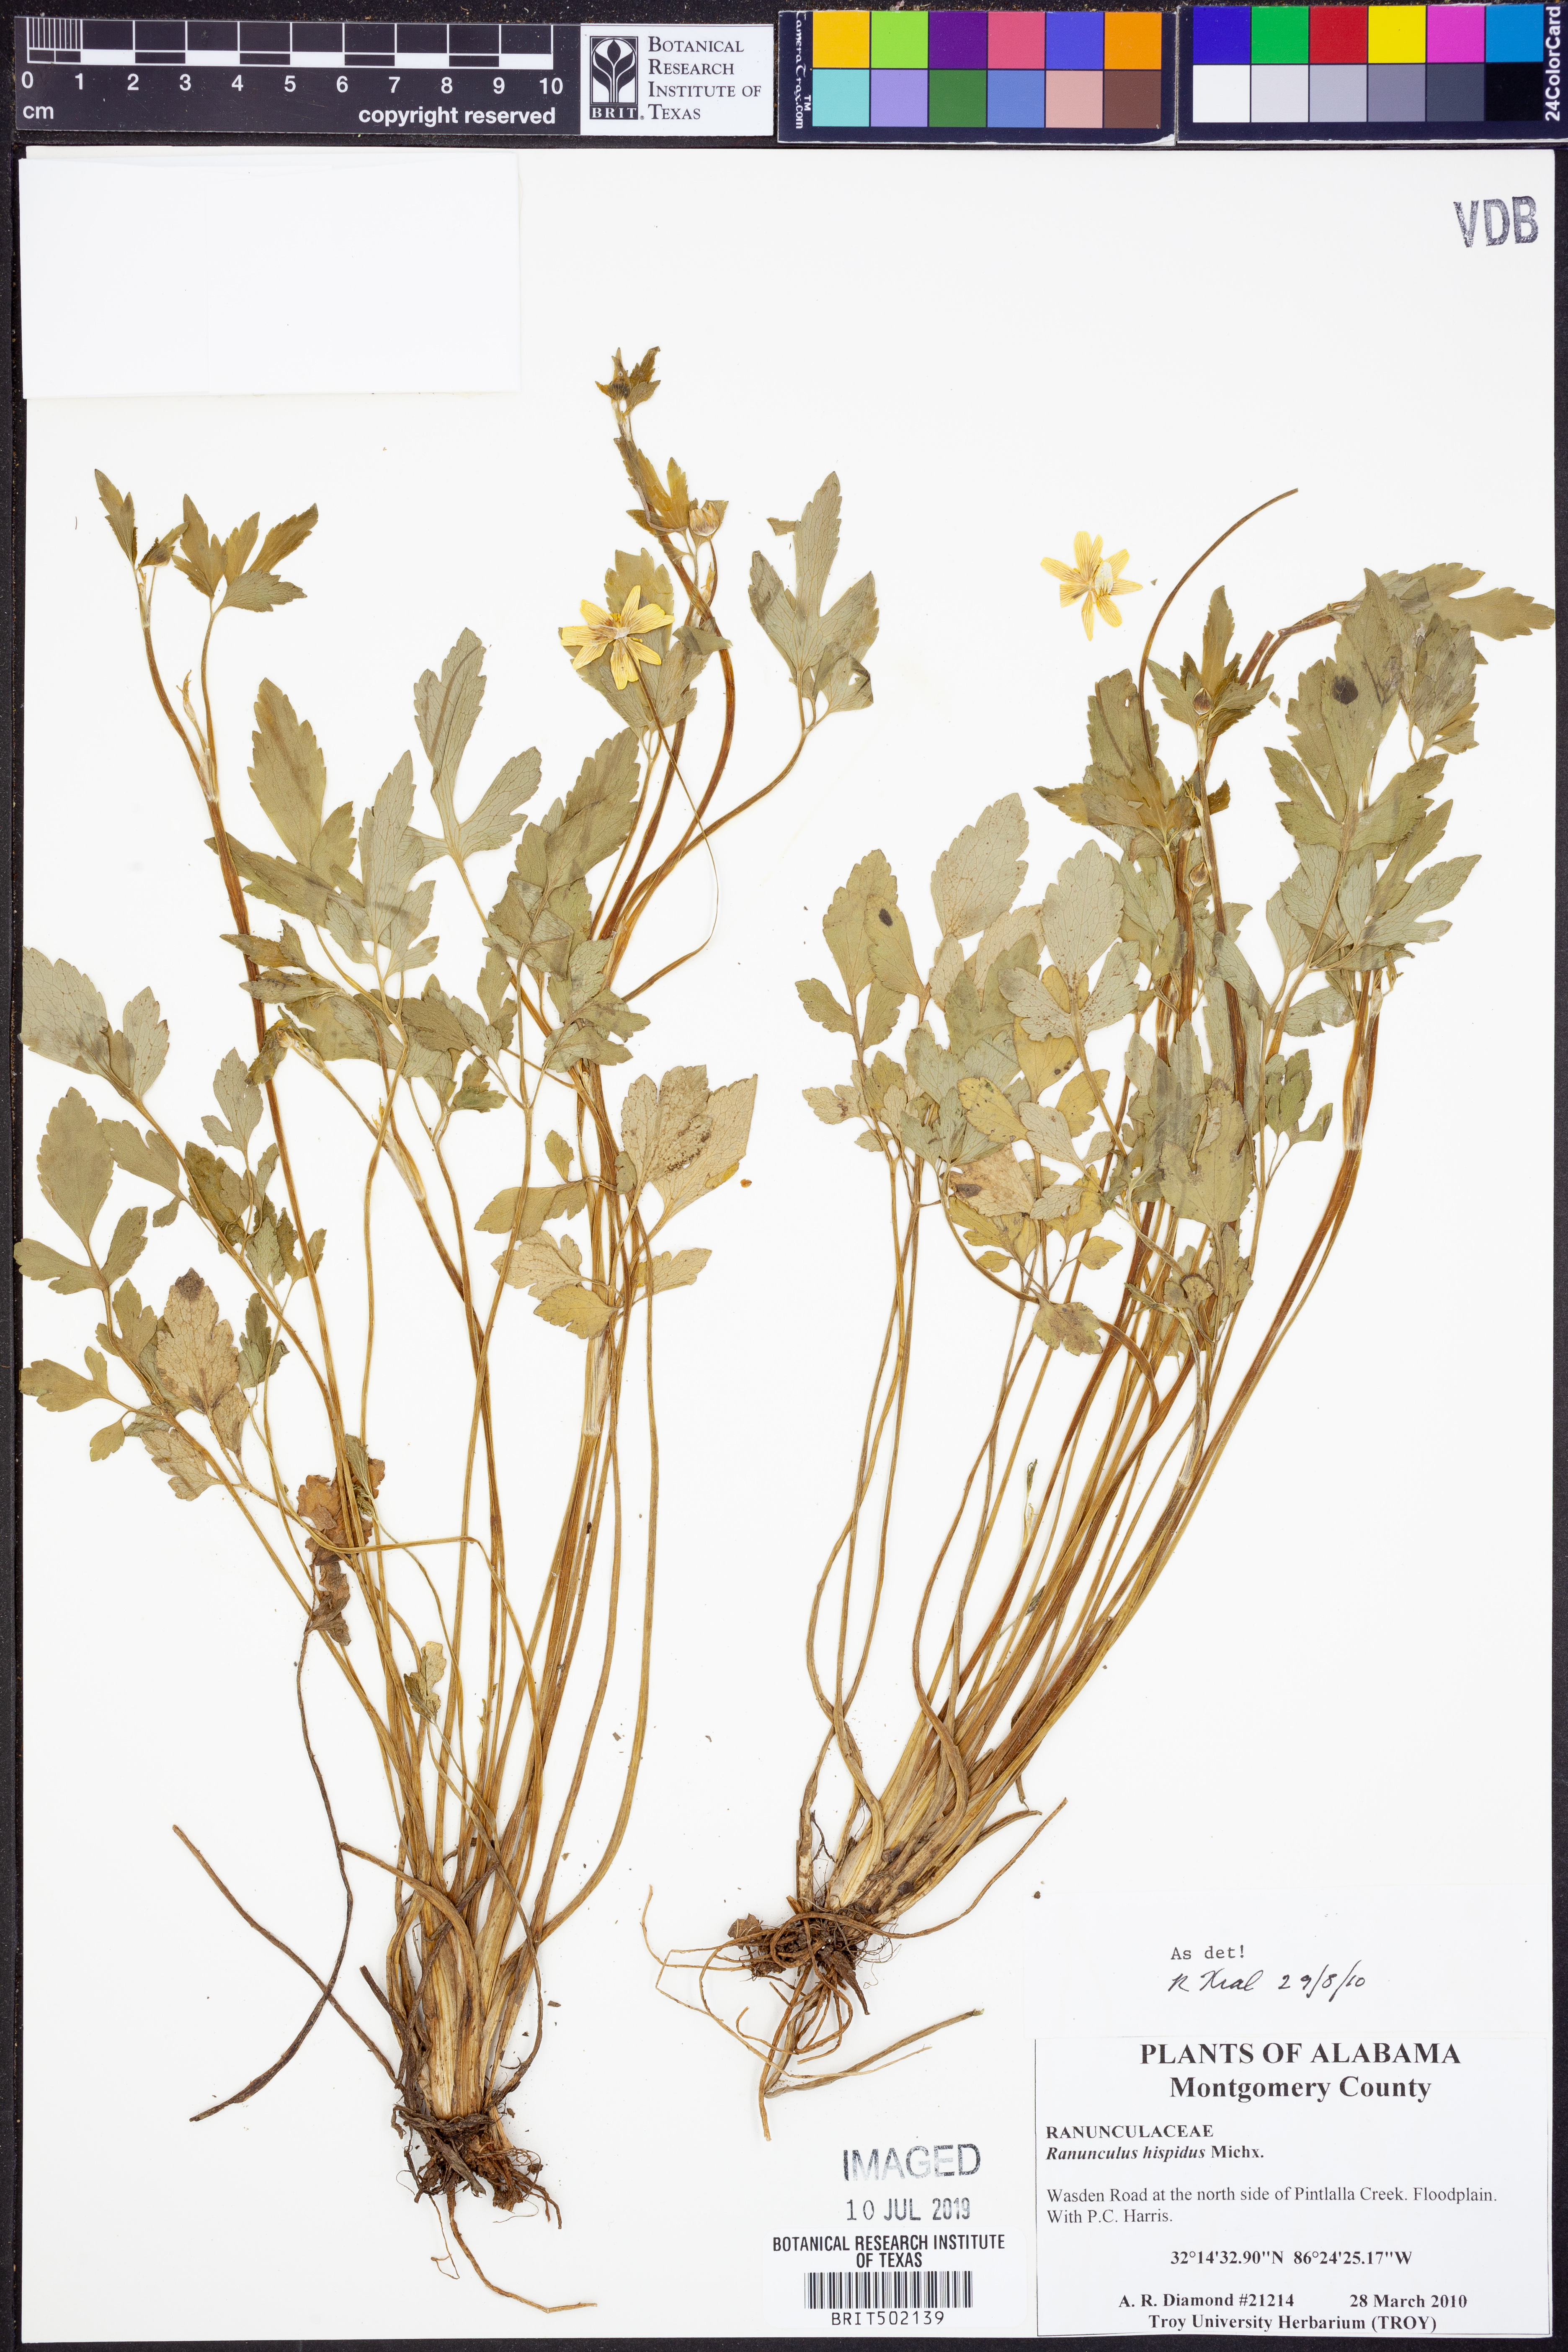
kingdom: Plantae
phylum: Tracheophyta
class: Magnoliopsida
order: Ranunculales
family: Ranunculaceae
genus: Ranunculus
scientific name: Ranunculus hispidus
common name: Bristly buttercup
